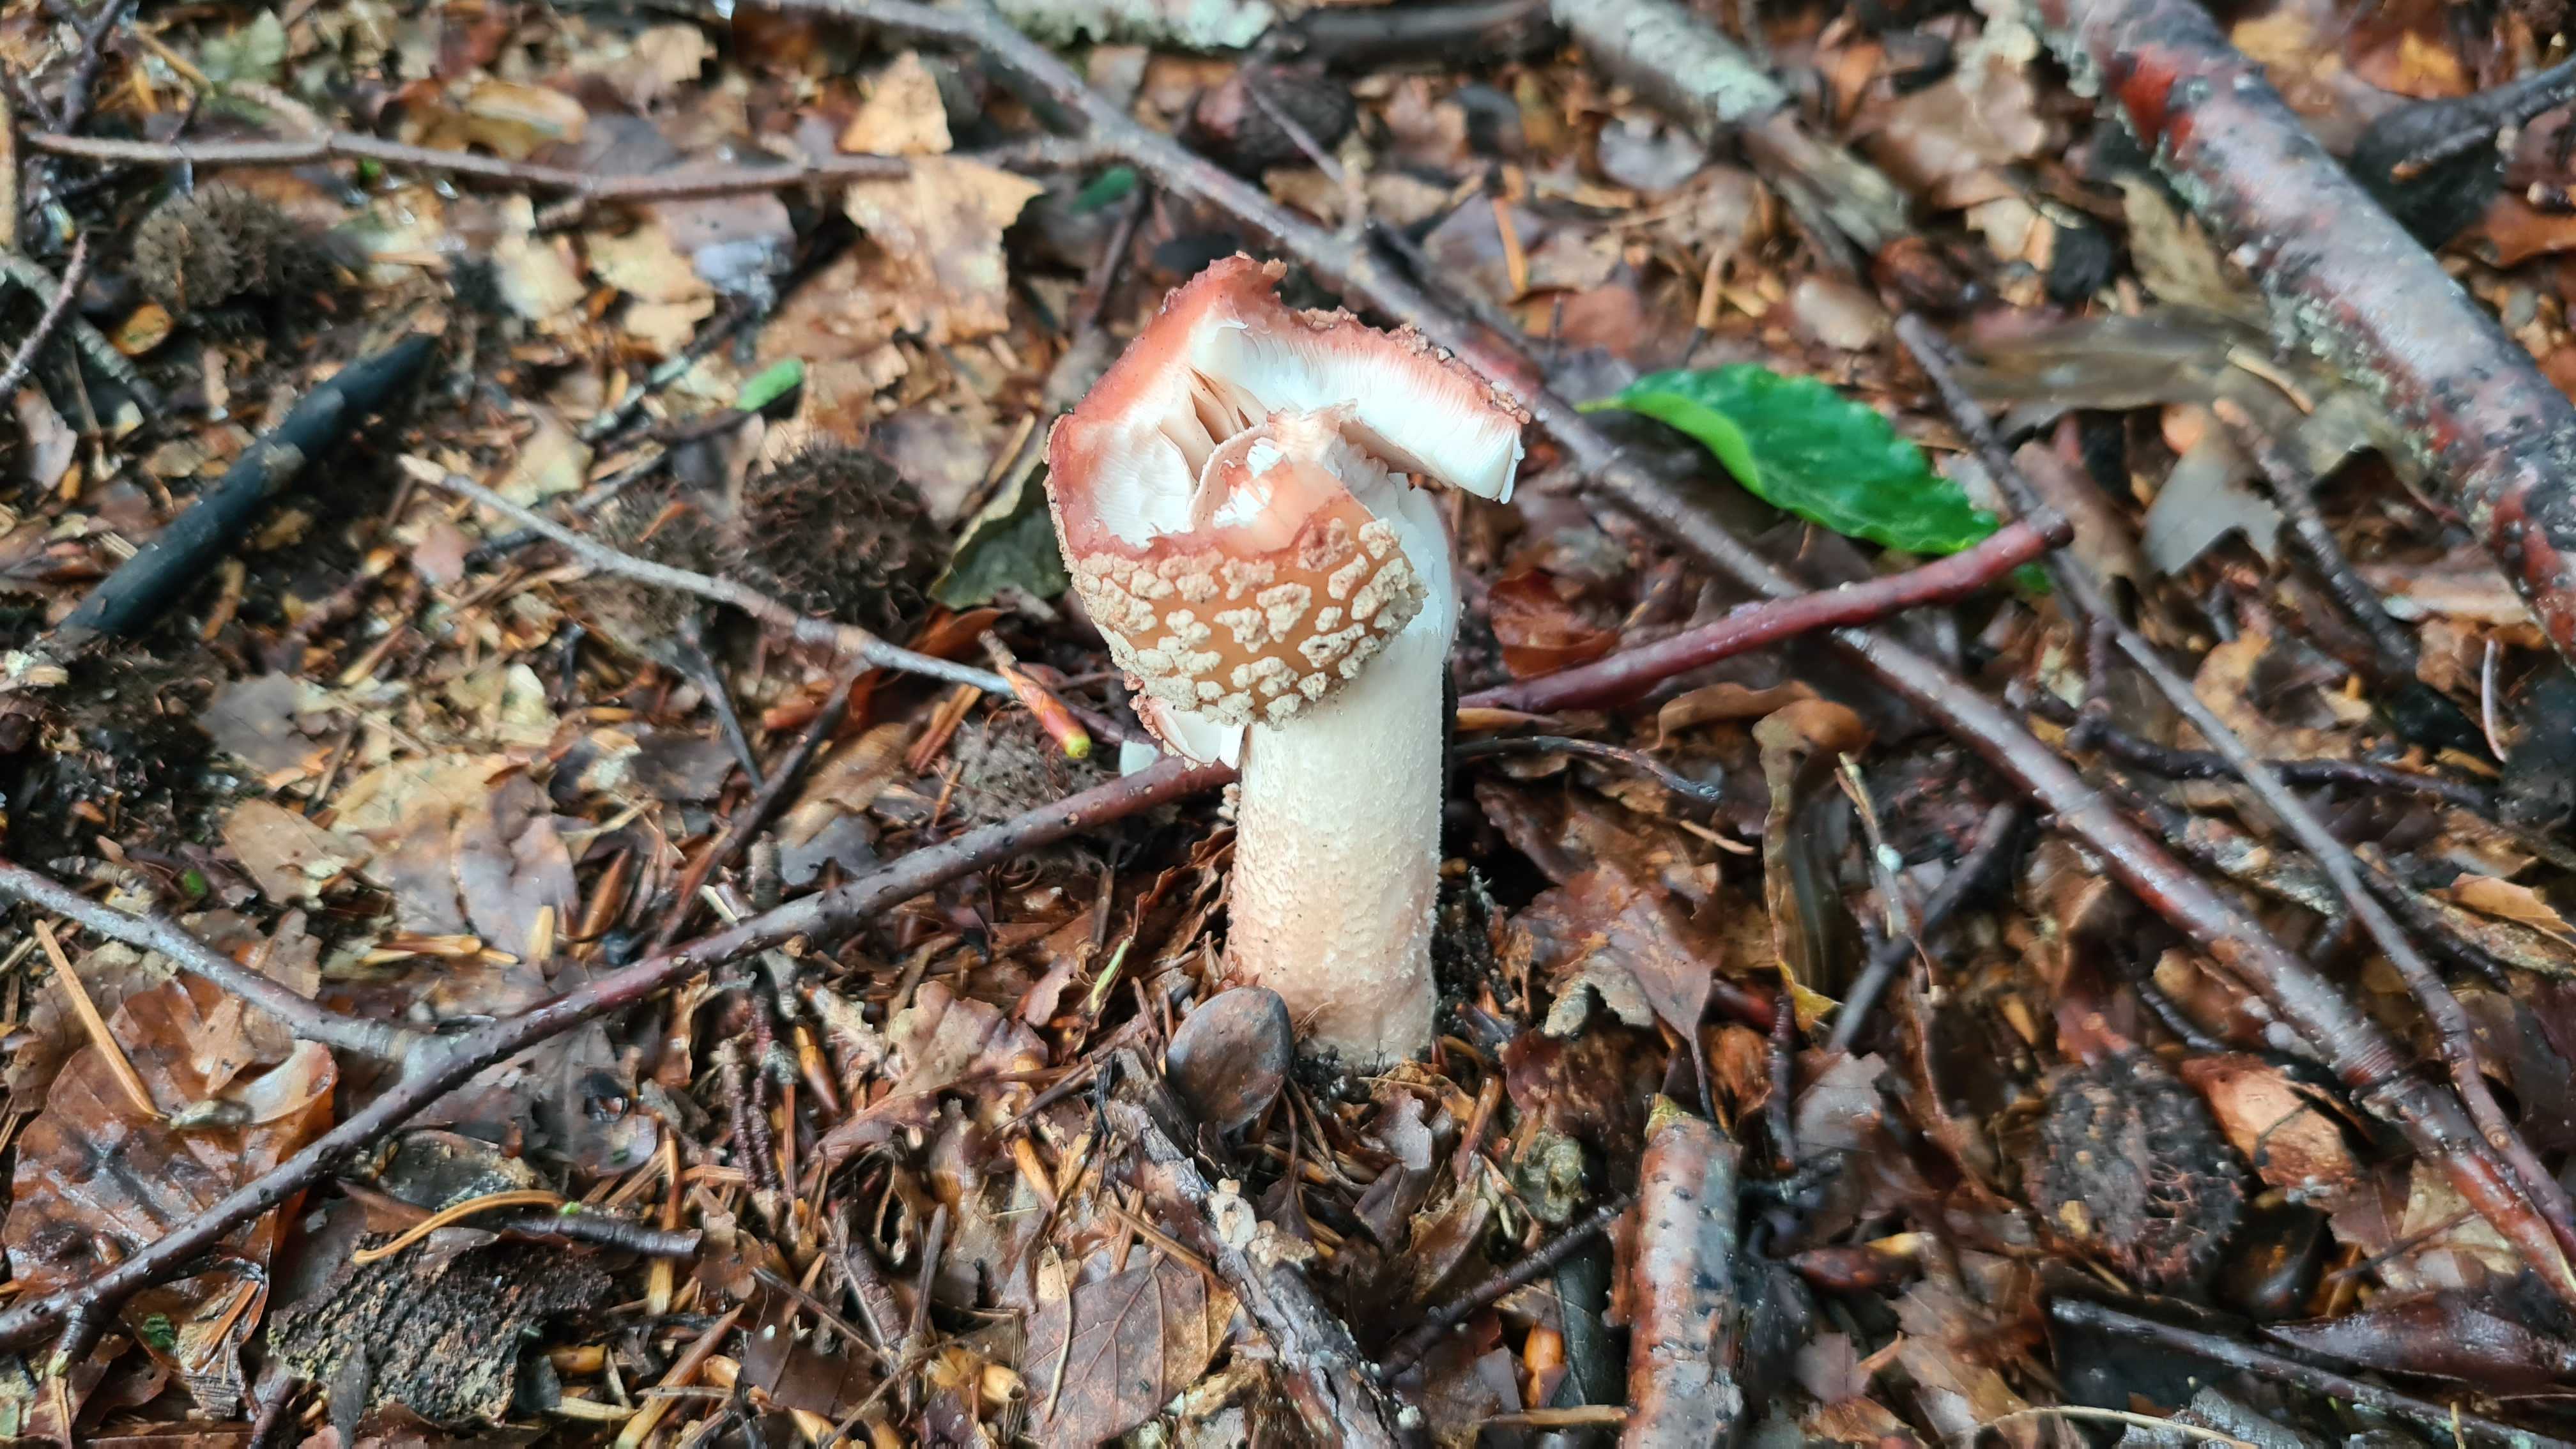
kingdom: Fungi
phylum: Basidiomycota
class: Agaricomycetes
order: Agaricales
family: Amanitaceae
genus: Amanita
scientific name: Amanita rubescens
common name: rødmende fluesvamp
